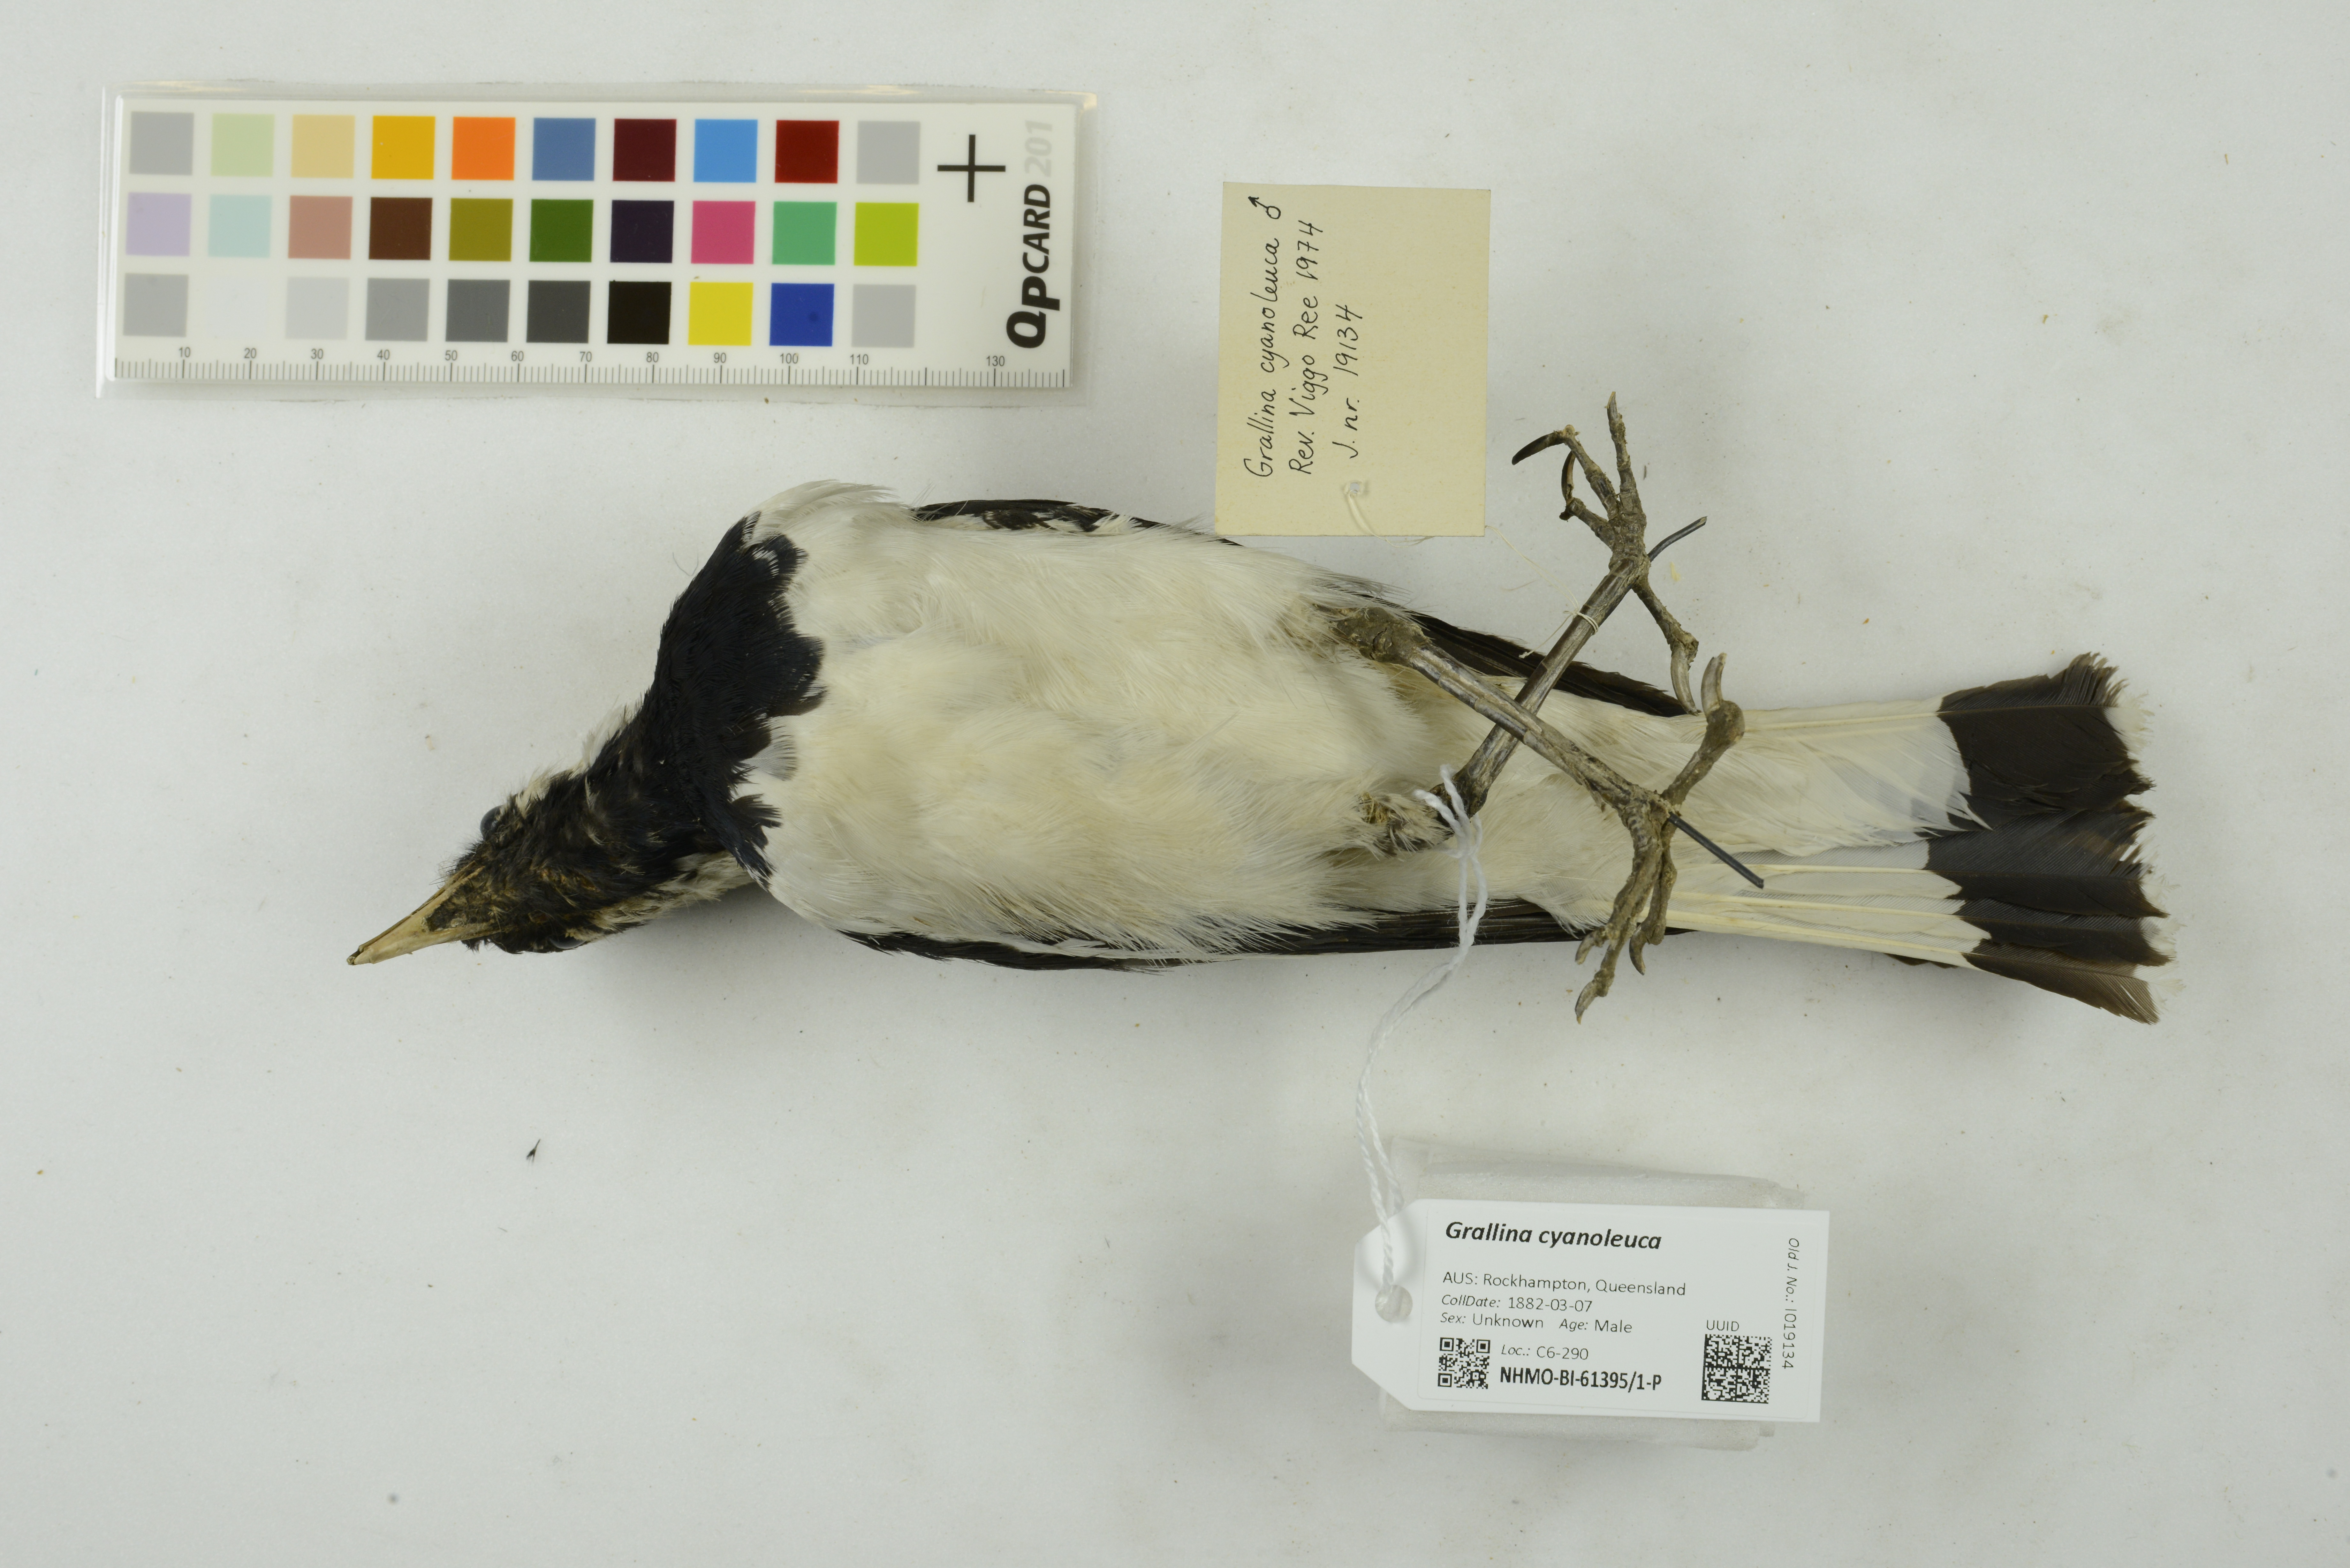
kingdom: Animalia
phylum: Chordata
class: Aves
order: Passeriformes
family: Monarchidae
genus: Grallina
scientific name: Grallina cyanoleuca
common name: Magpie-lark
